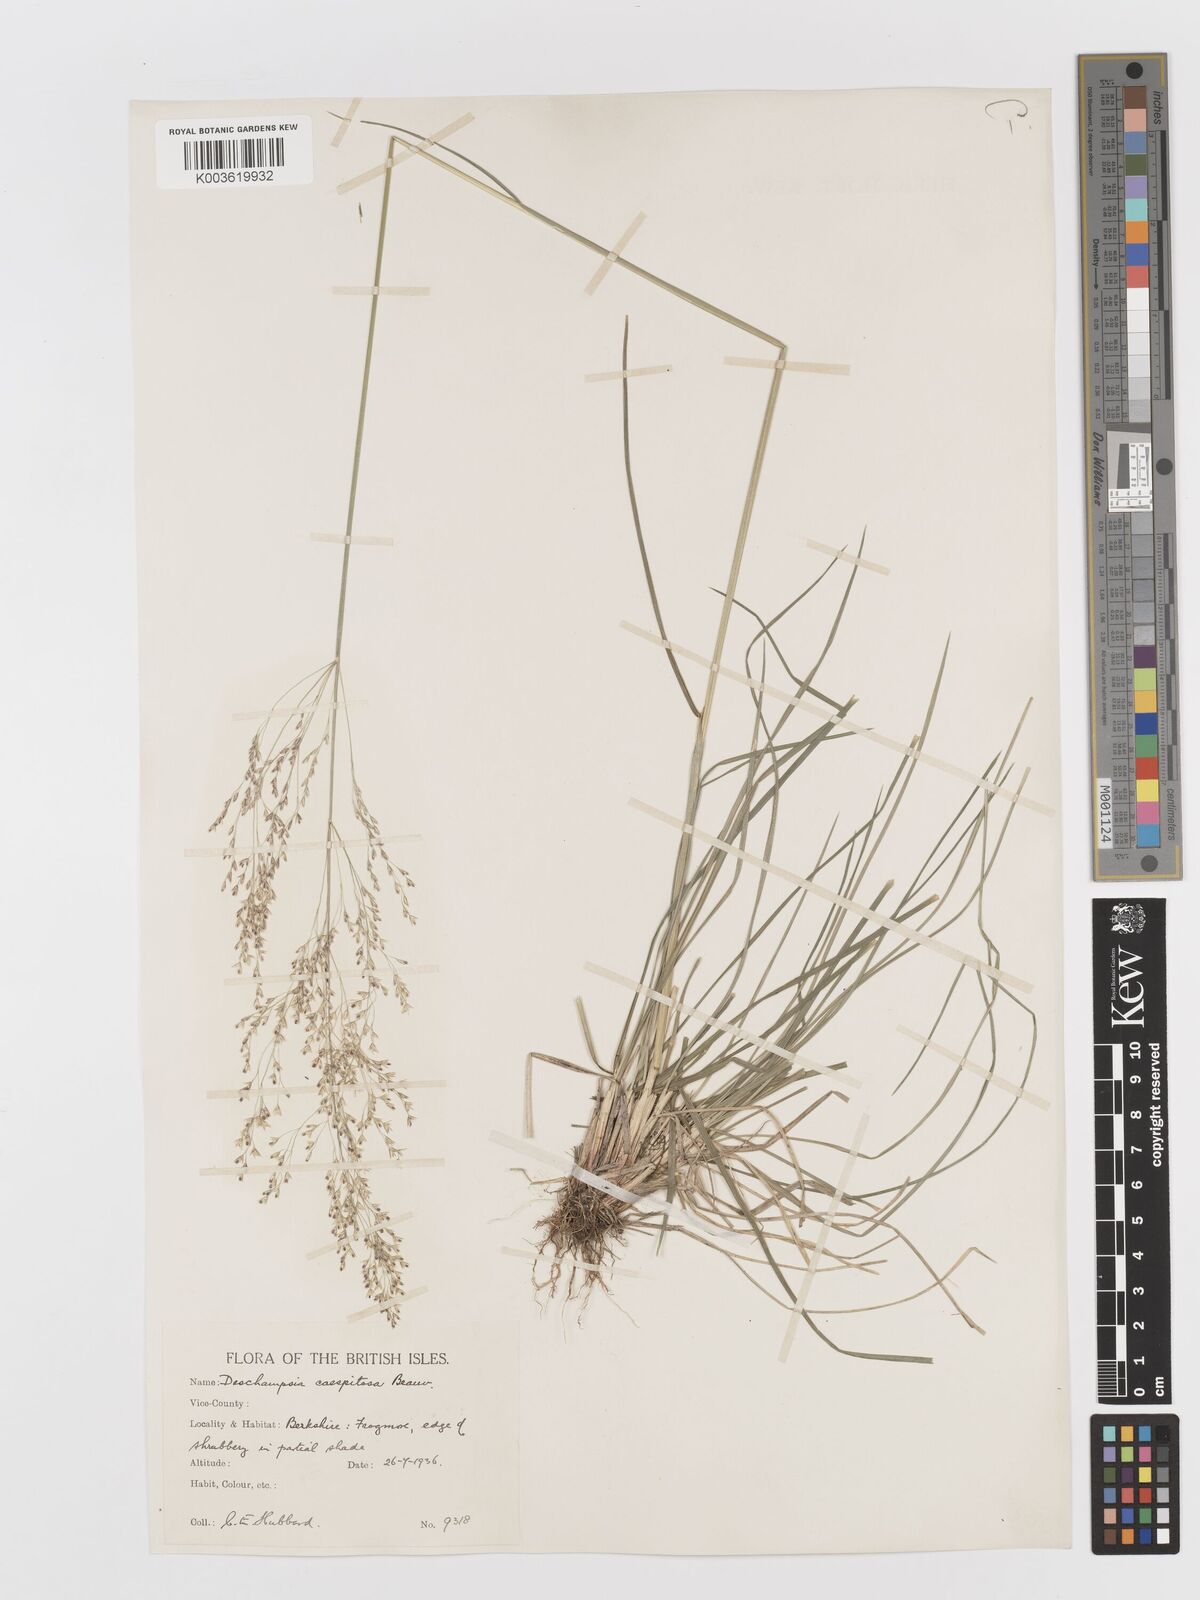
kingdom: Plantae
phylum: Tracheophyta
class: Liliopsida
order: Poales
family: Poaceae
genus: Deschampsia
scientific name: Deschampsia
